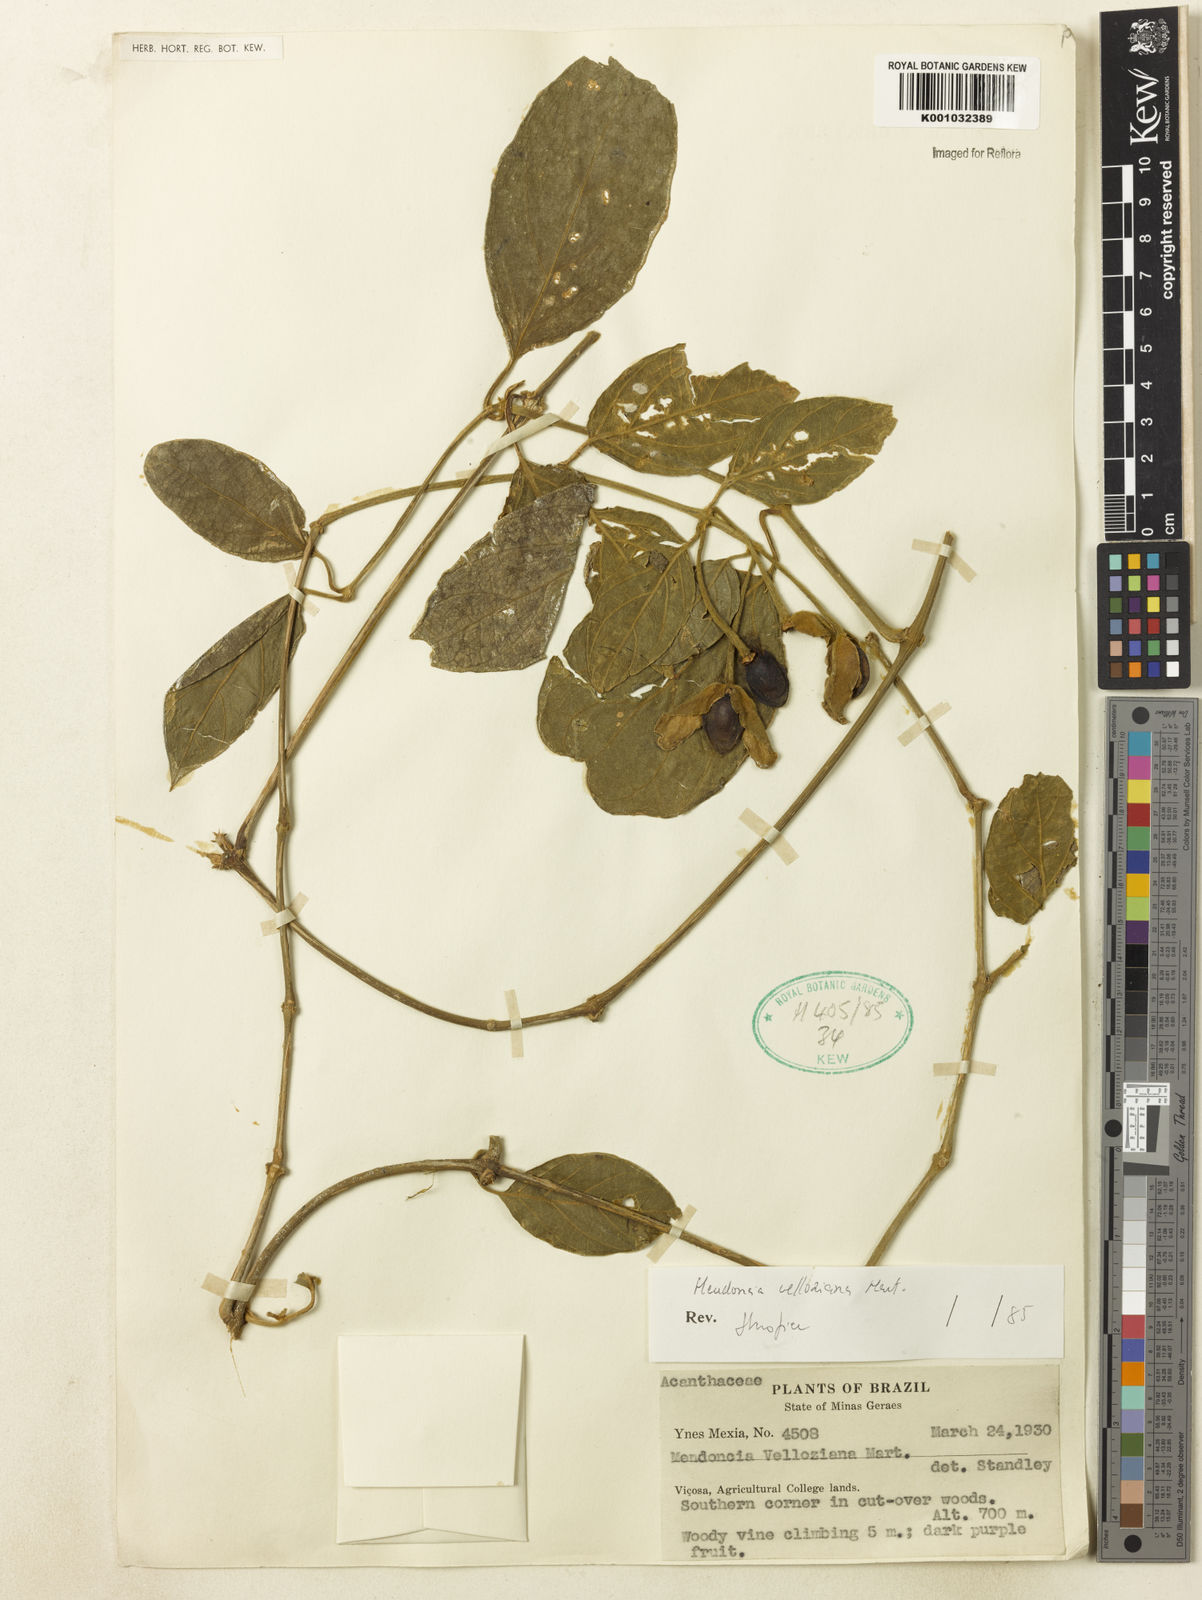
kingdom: Plantae
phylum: Tracheophyta
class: Magnoliopsida
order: Lamiales
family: Acanthaceae
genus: Mendoncia
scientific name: Mendoncia velloziana
